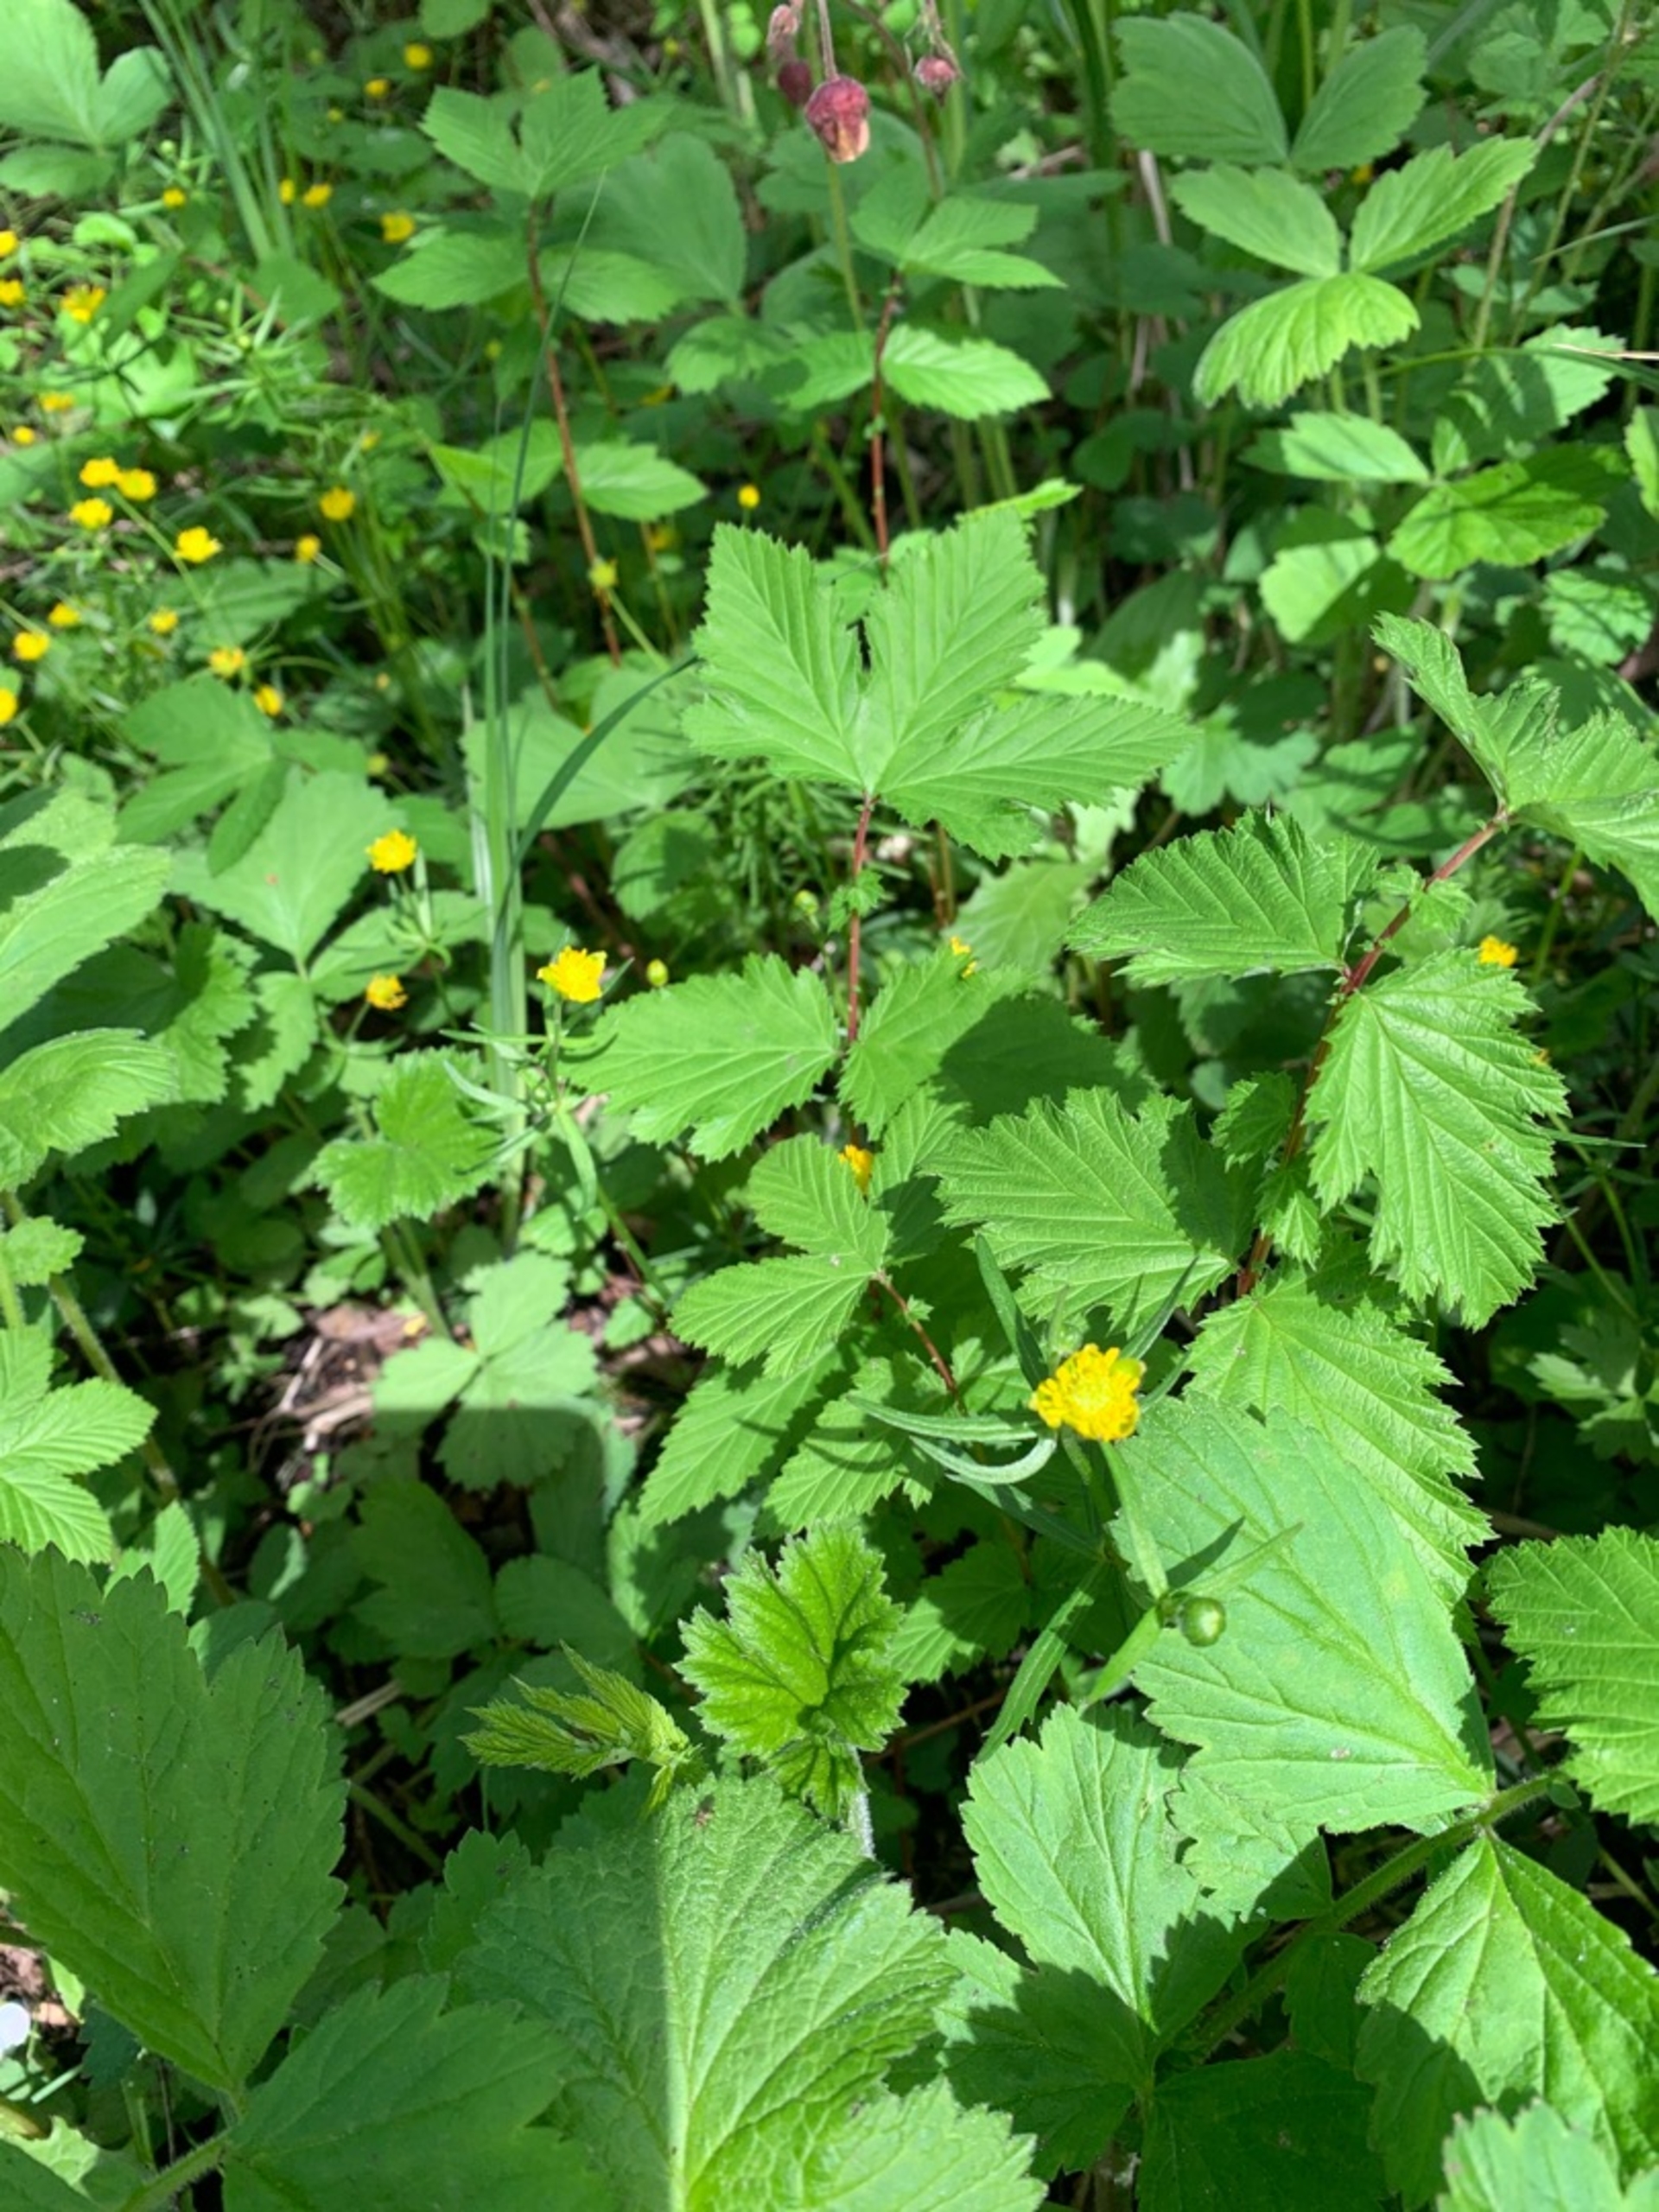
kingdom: Plantae
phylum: Tracheophyta
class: Magnoliopsida
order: Ranunculales
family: Ranunculaceae
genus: Ranunculus
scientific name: Ranunculus auricomus
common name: Nyrebladet ranunkel
